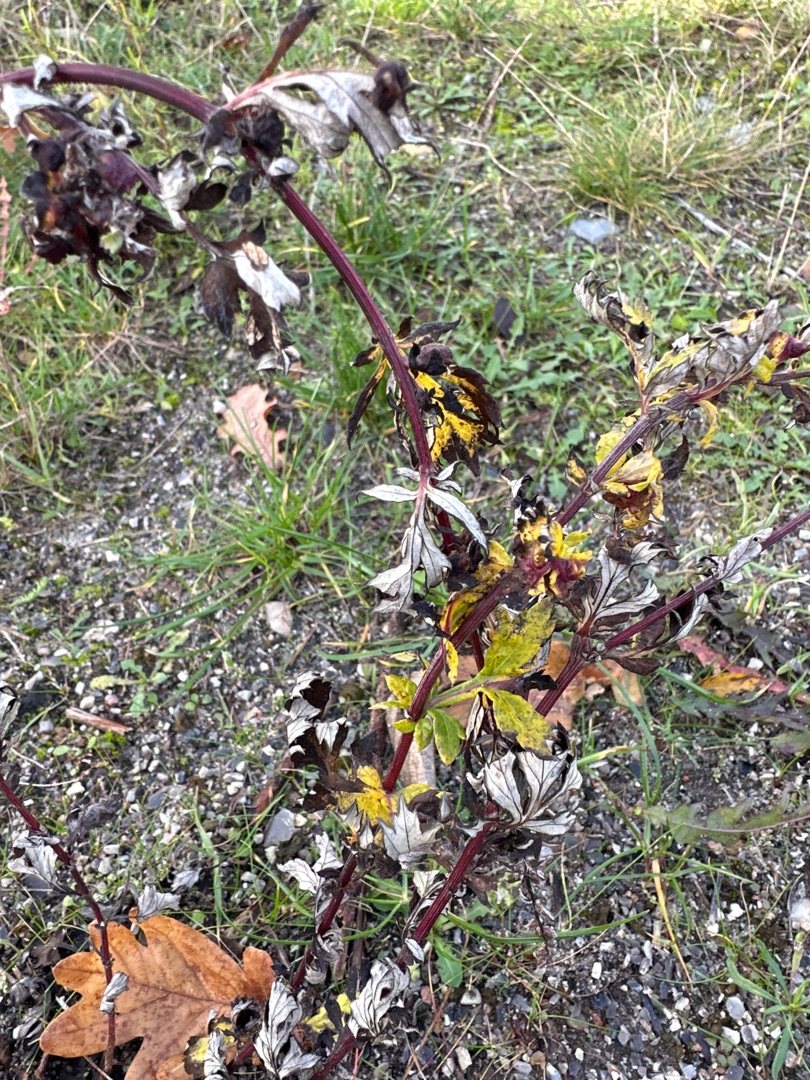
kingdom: Plantae
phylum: Tracheophyta
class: Magnoliopsida
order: Asterales
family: Asteraceae
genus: Artemisia
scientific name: Artemisia vulgaris
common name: Grå-bynke
